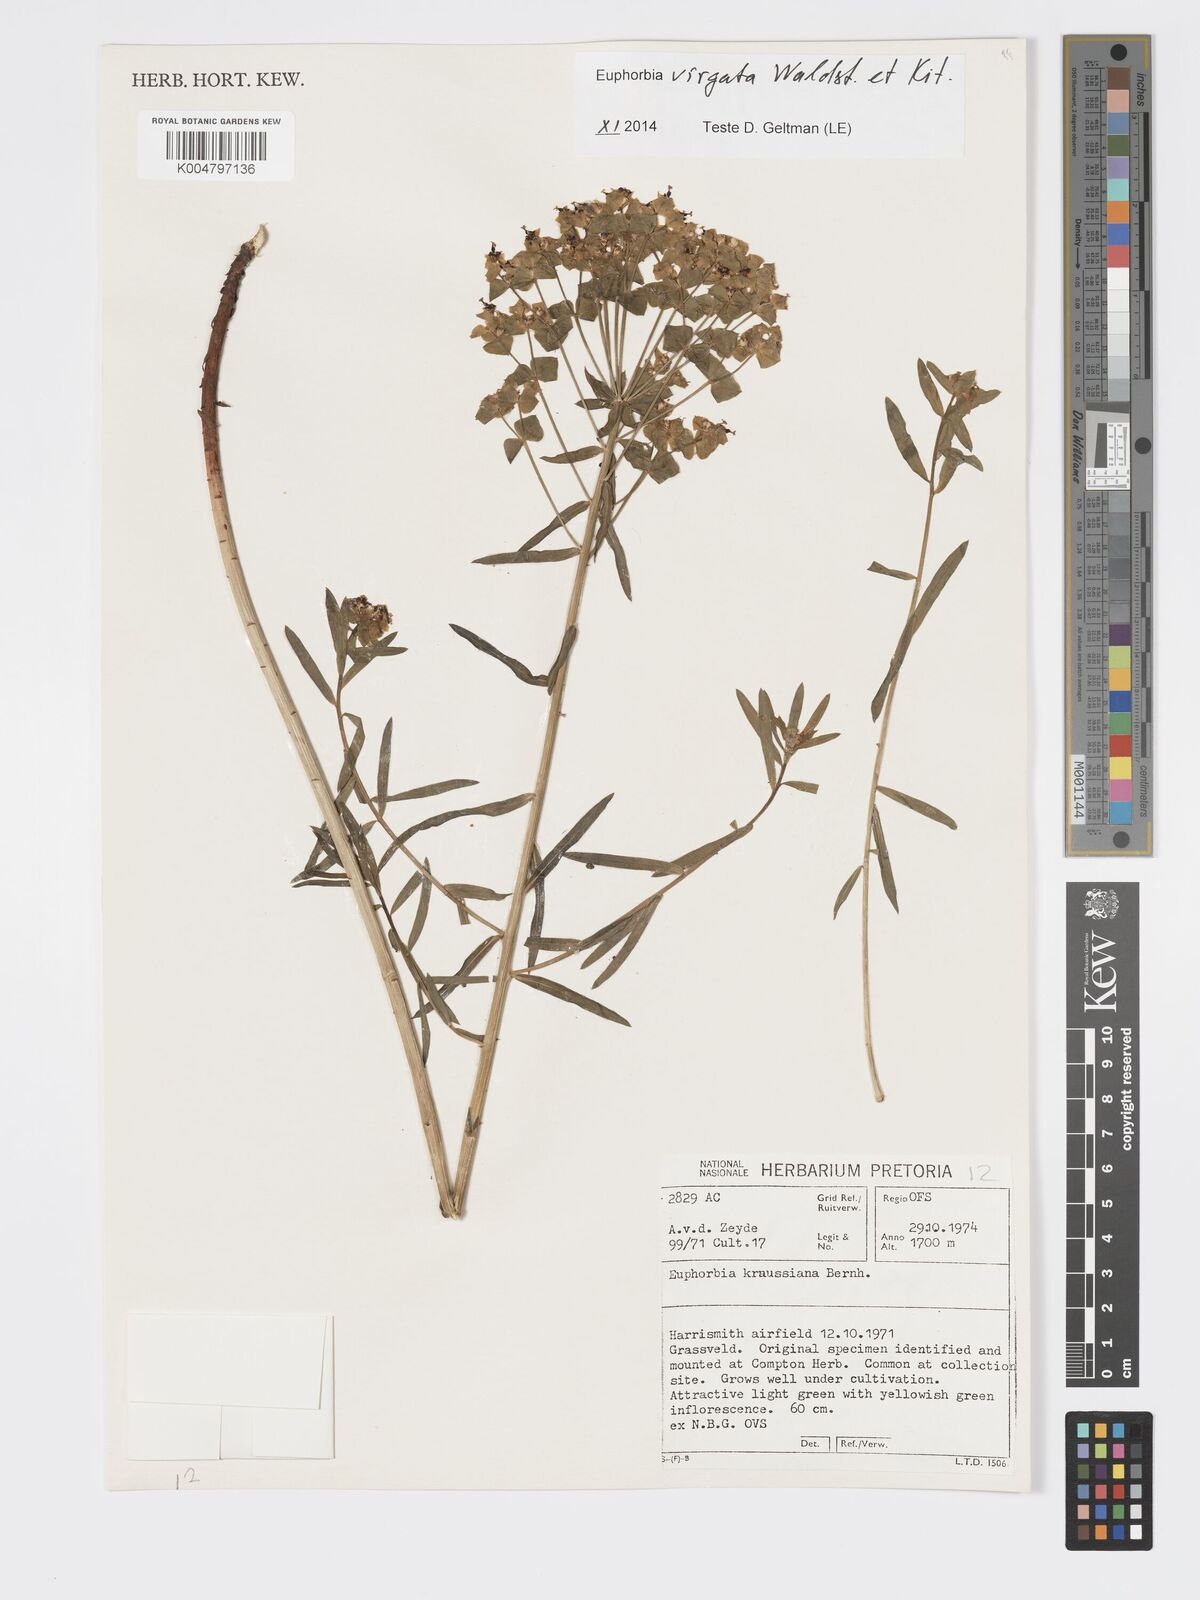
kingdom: Plantae
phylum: Tracheophyta
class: Magnoliopsida
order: Malpighiales
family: Euphorbiaceae
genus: Euphorbia
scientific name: Euphorbia
